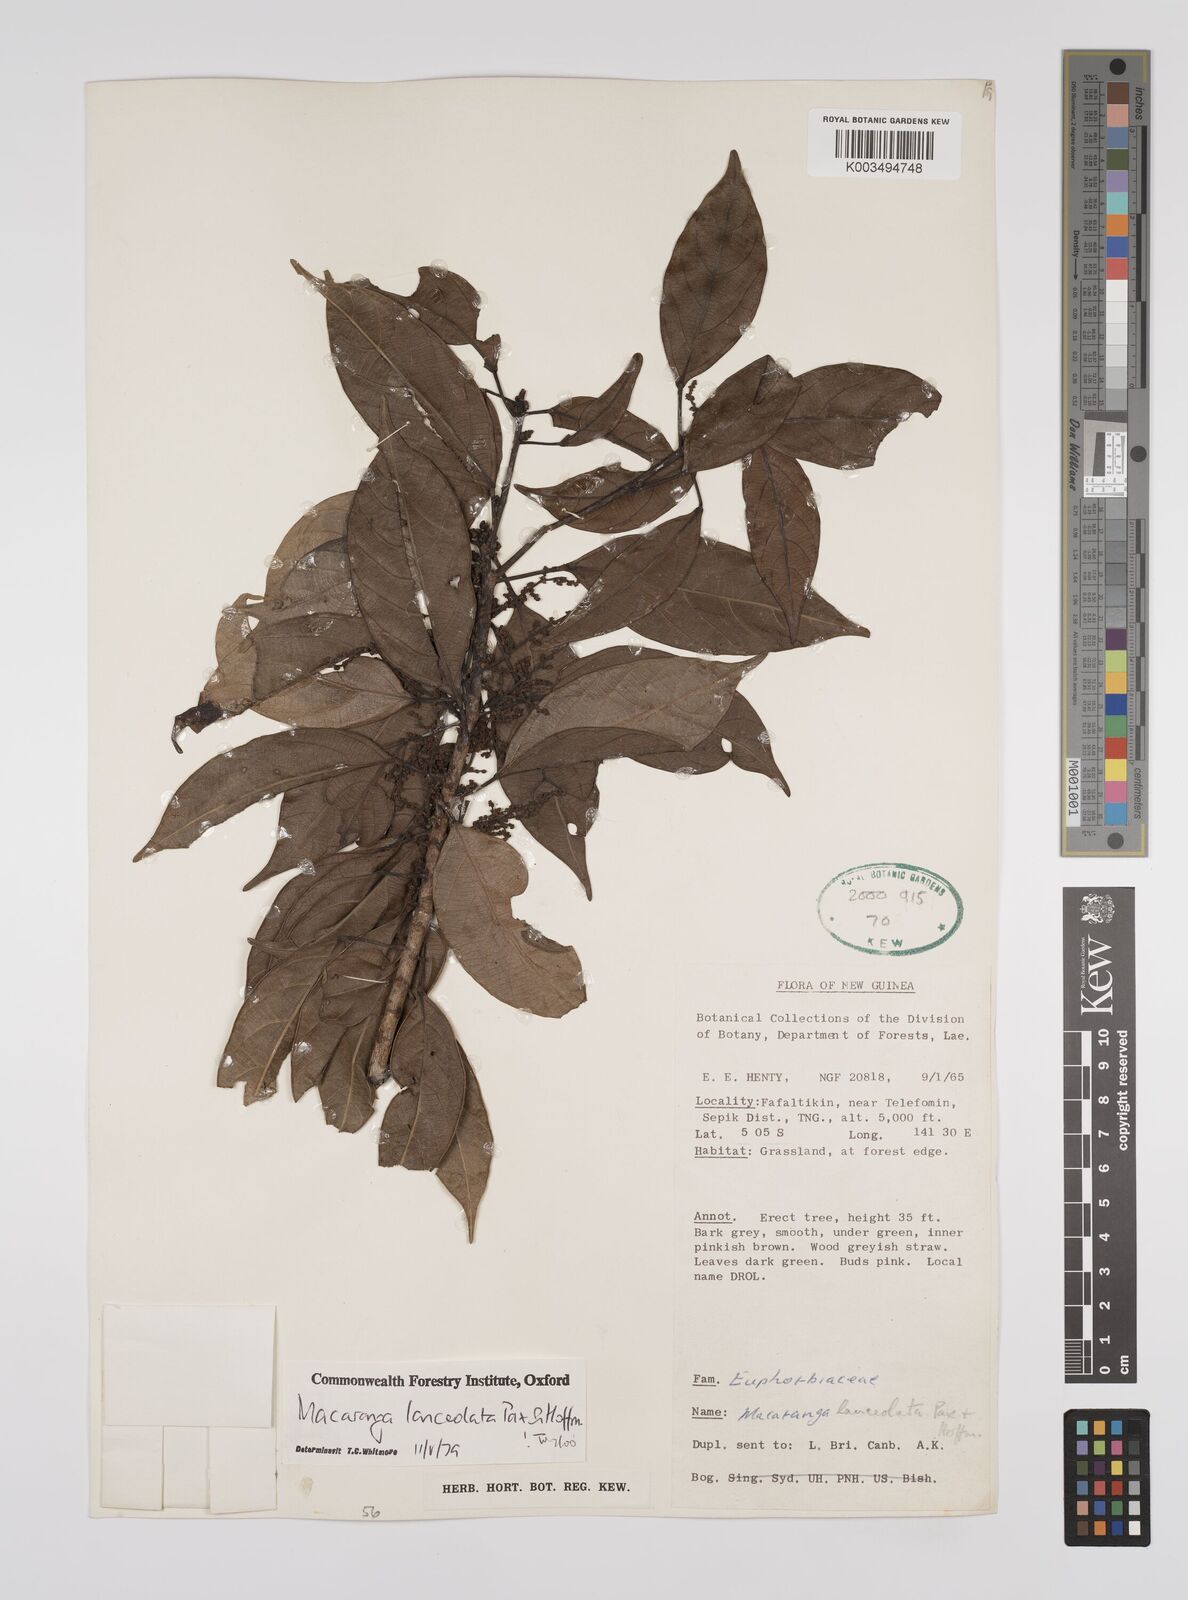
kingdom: Plantae
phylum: Tracheophyta
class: Magnoliopsida
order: Malpighiales
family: Euphorbiaceae
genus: Macaranga
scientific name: Macaranga lanceolata
